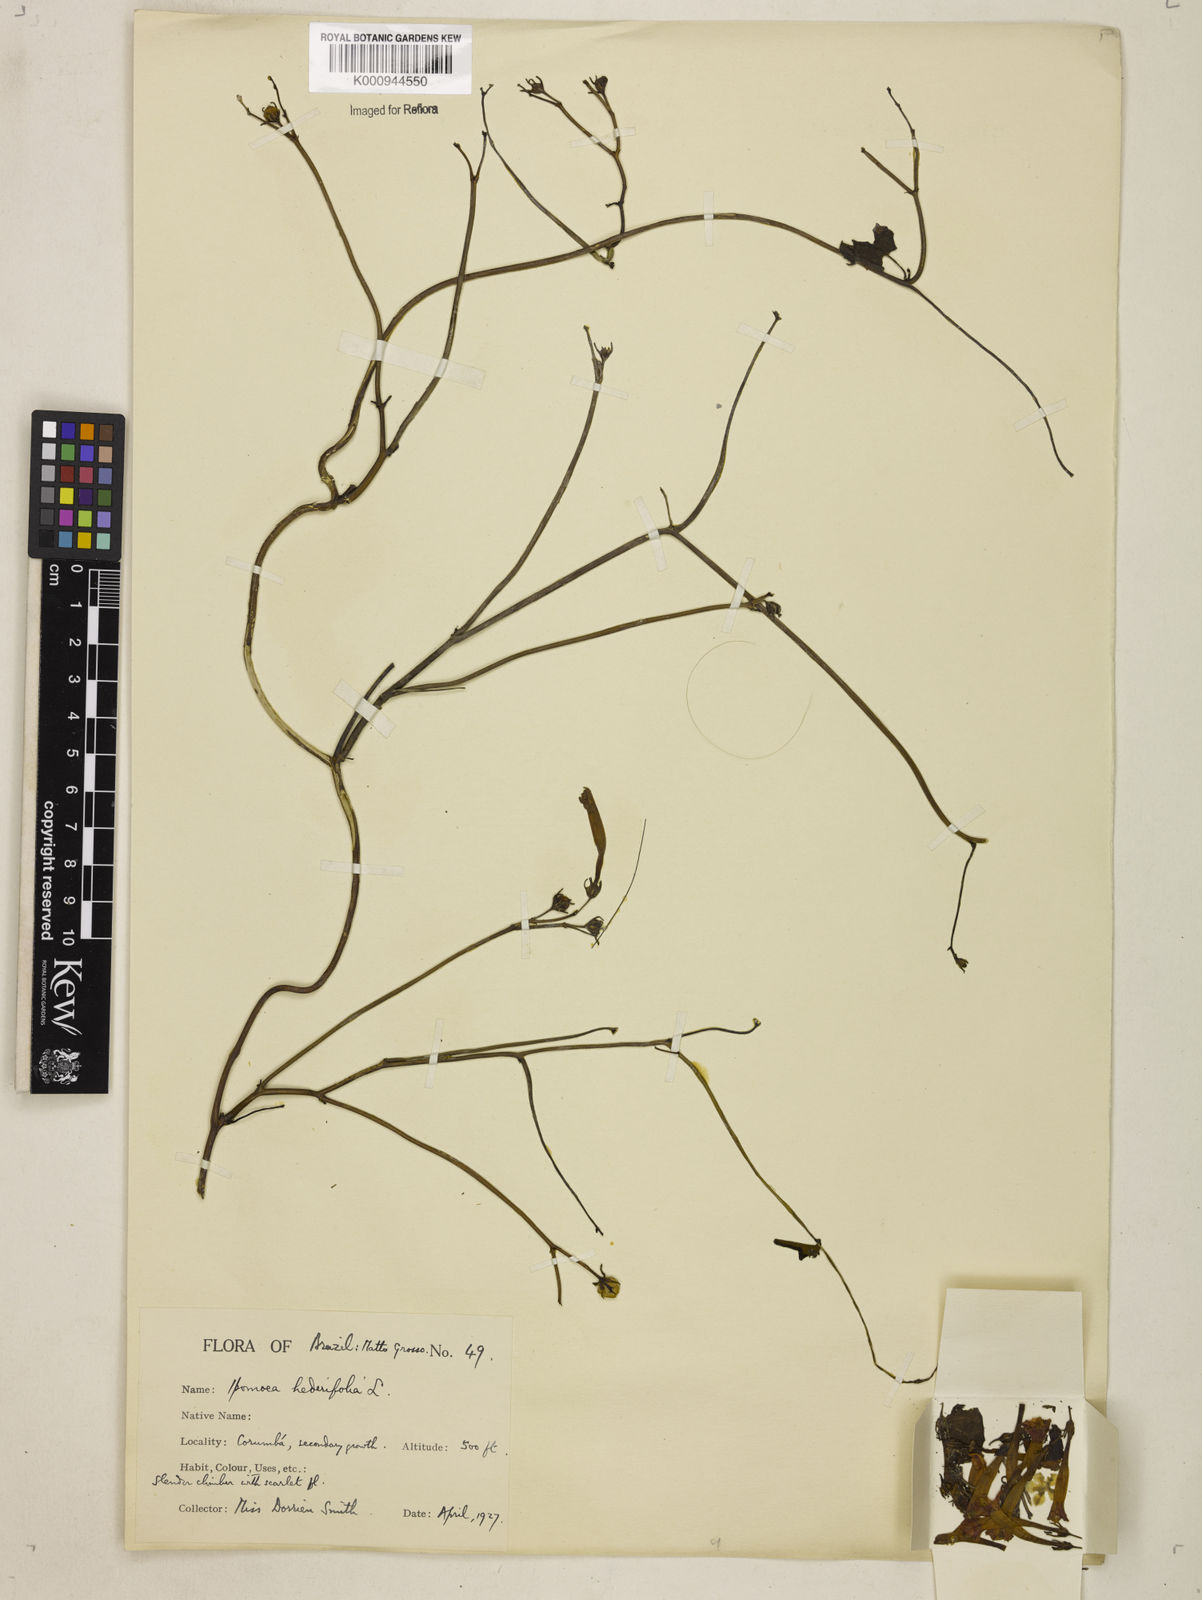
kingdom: Plantae
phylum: Tracheophyta
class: Magnoliopsida
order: Solanales
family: Convolvulaceae
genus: Ipomoea
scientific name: Ipomoea hederifolia
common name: Ivy-leaf morning-glory
